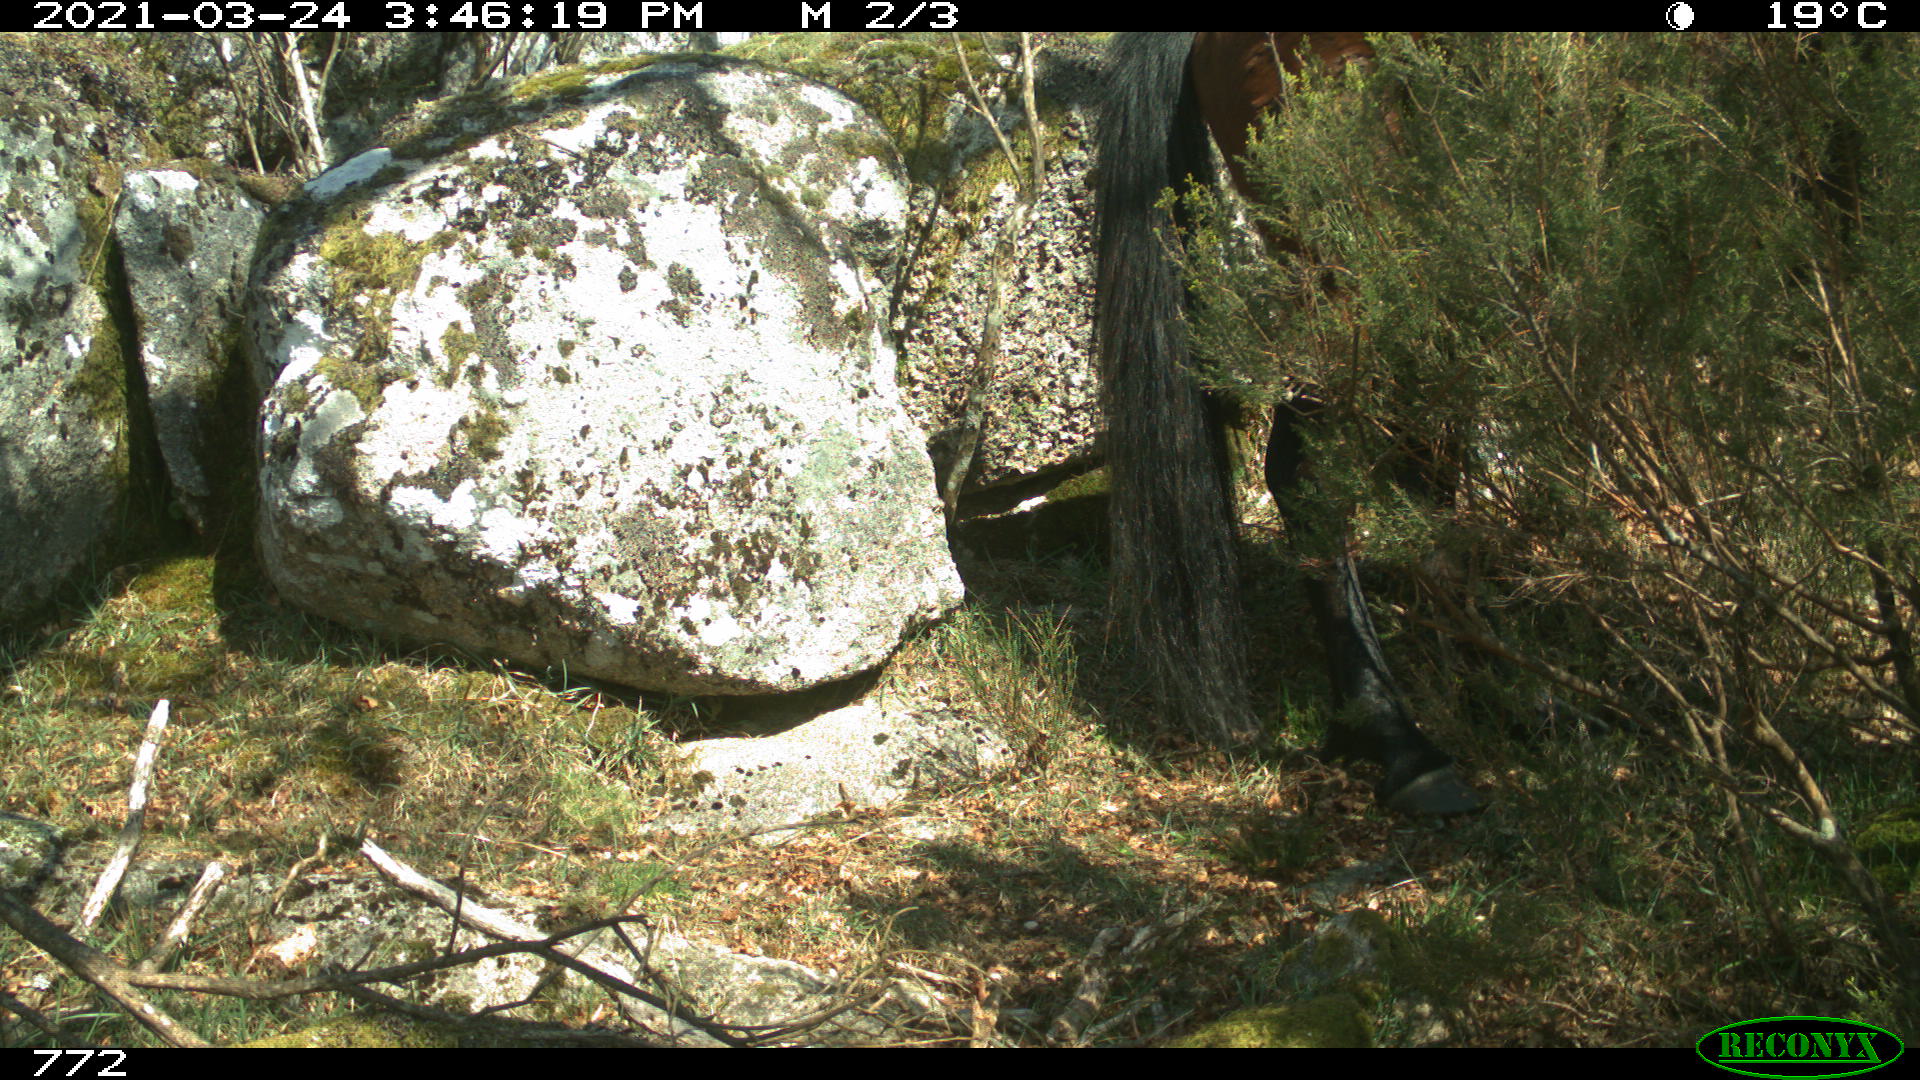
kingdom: Animalia
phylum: Chordata
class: Mammalia
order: Perissodactyla
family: Equidae
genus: Equus
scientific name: Equus caballus
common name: Horse
